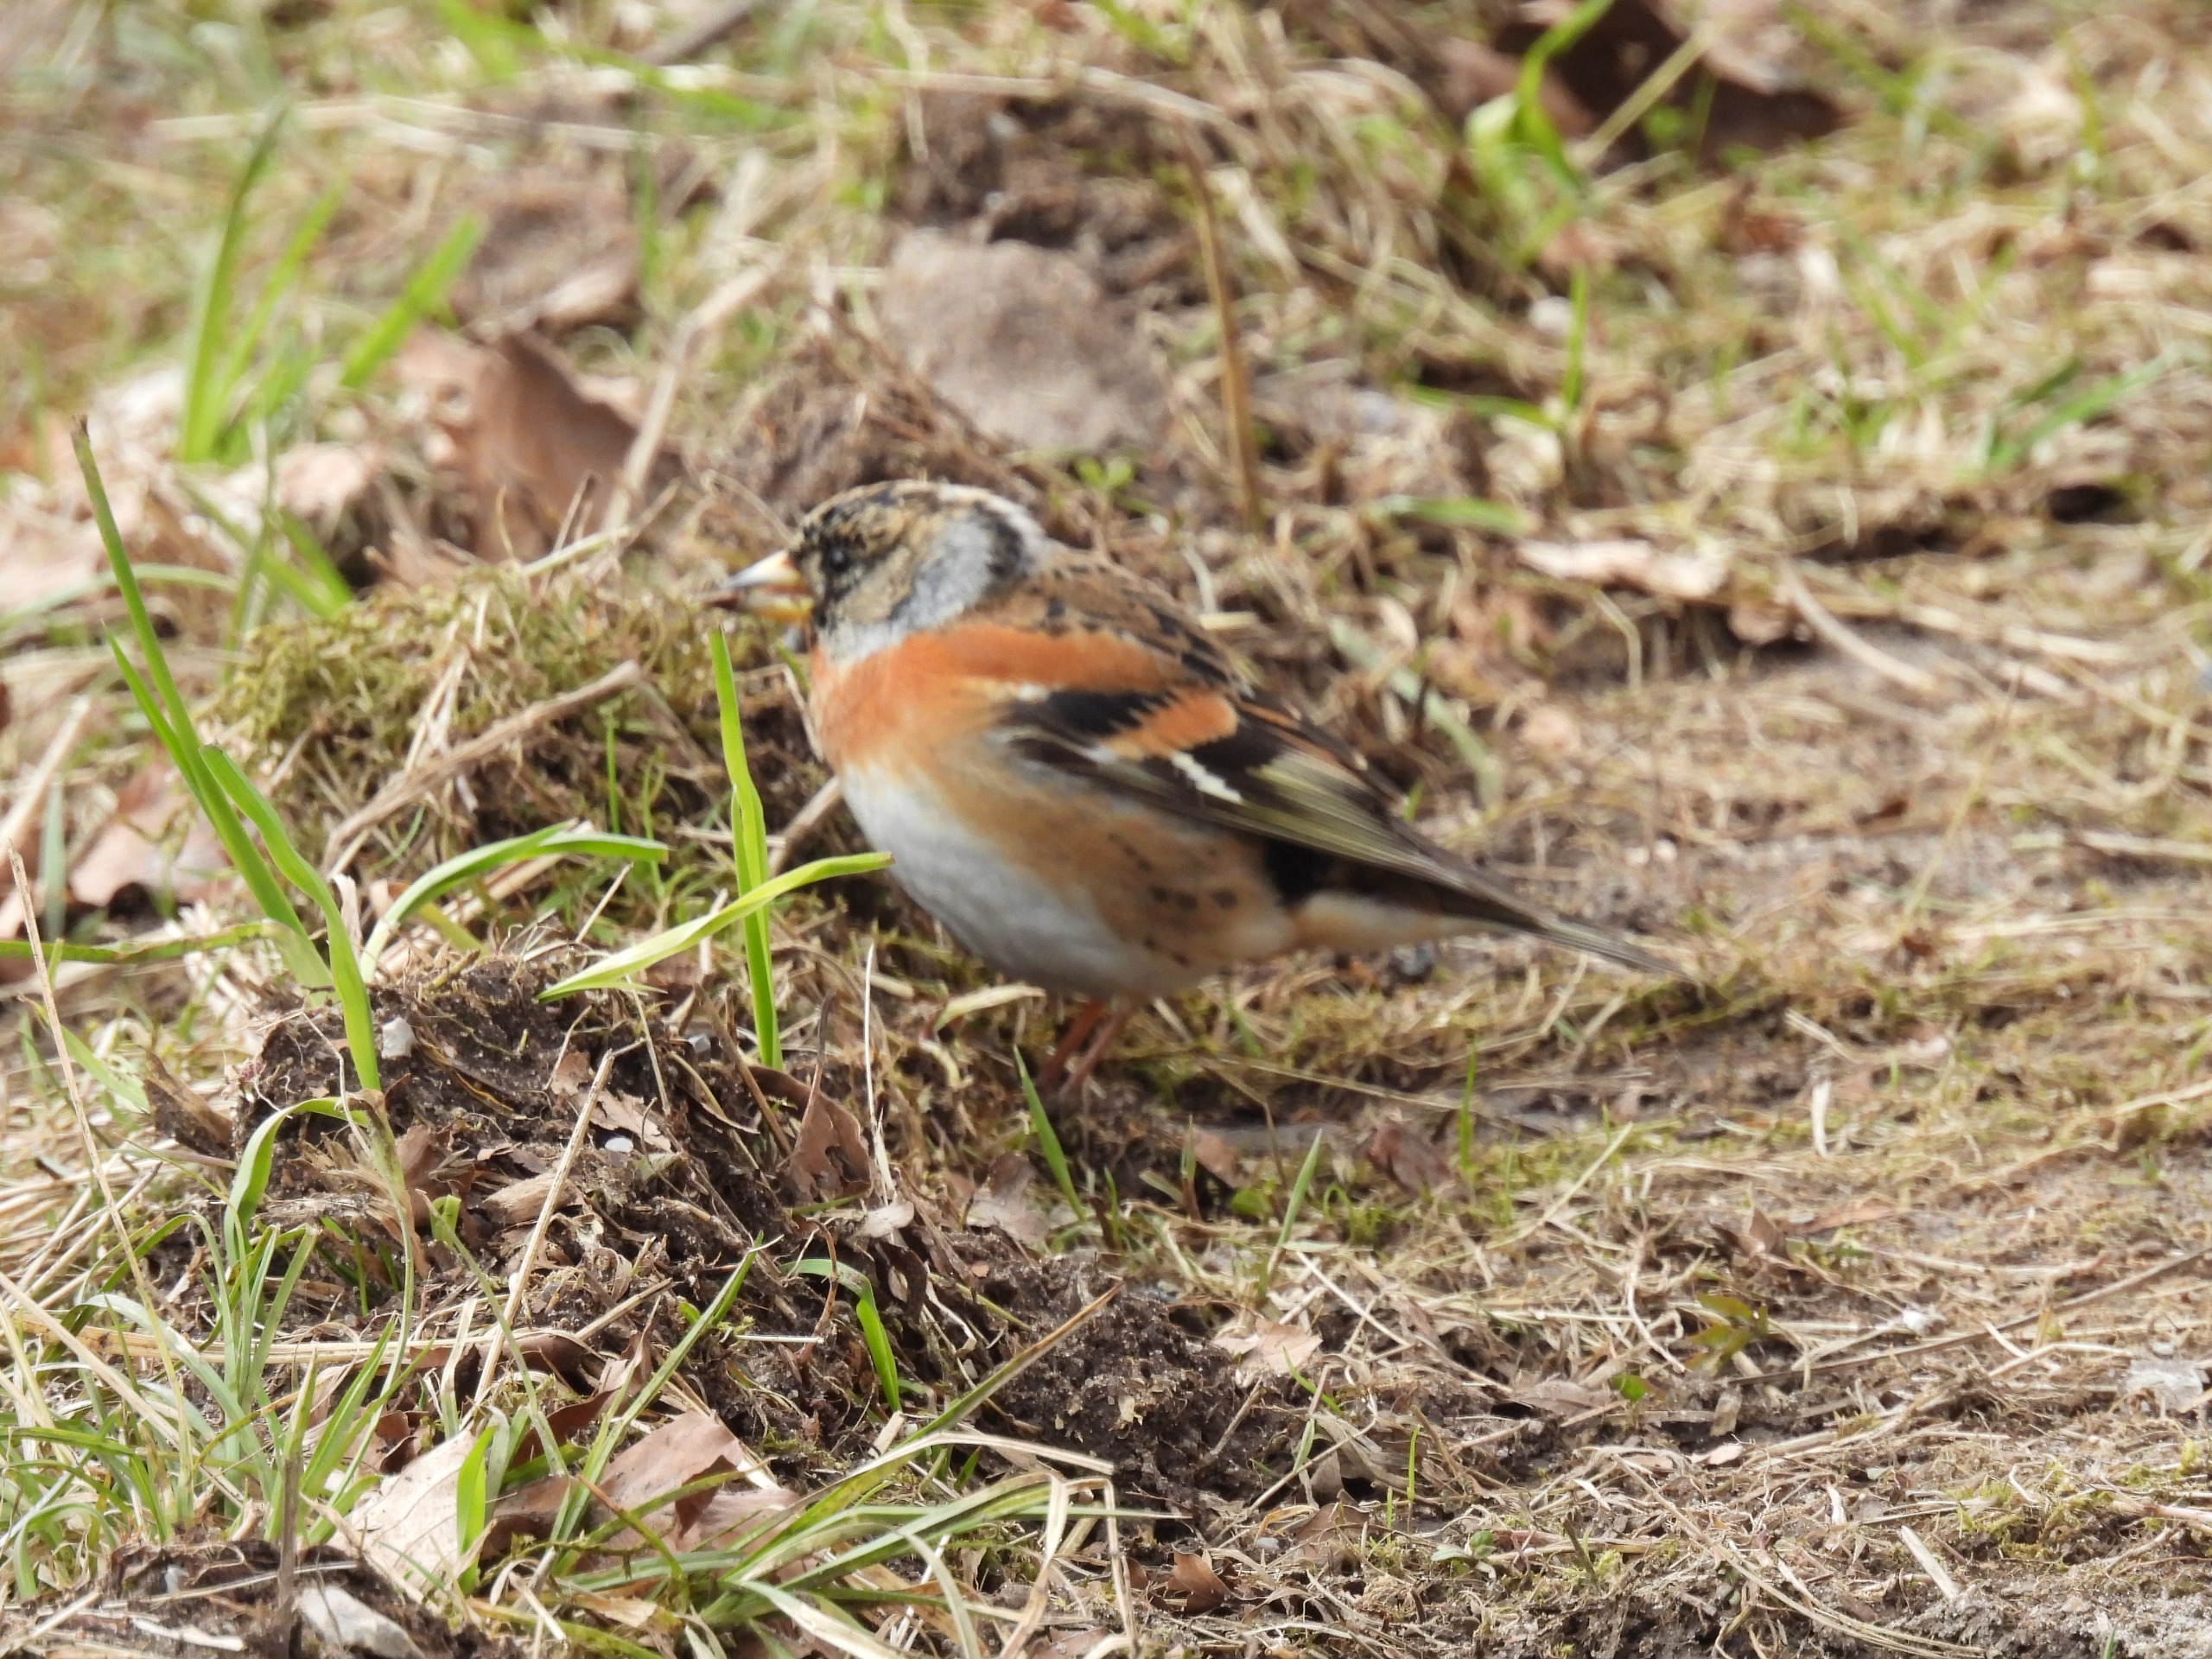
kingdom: Animalia
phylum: Chordata
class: Aves
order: Passeriformes
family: Fringillidae
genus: Fringilla
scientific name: Fringilla montifringilla
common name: Kvækerfinke
